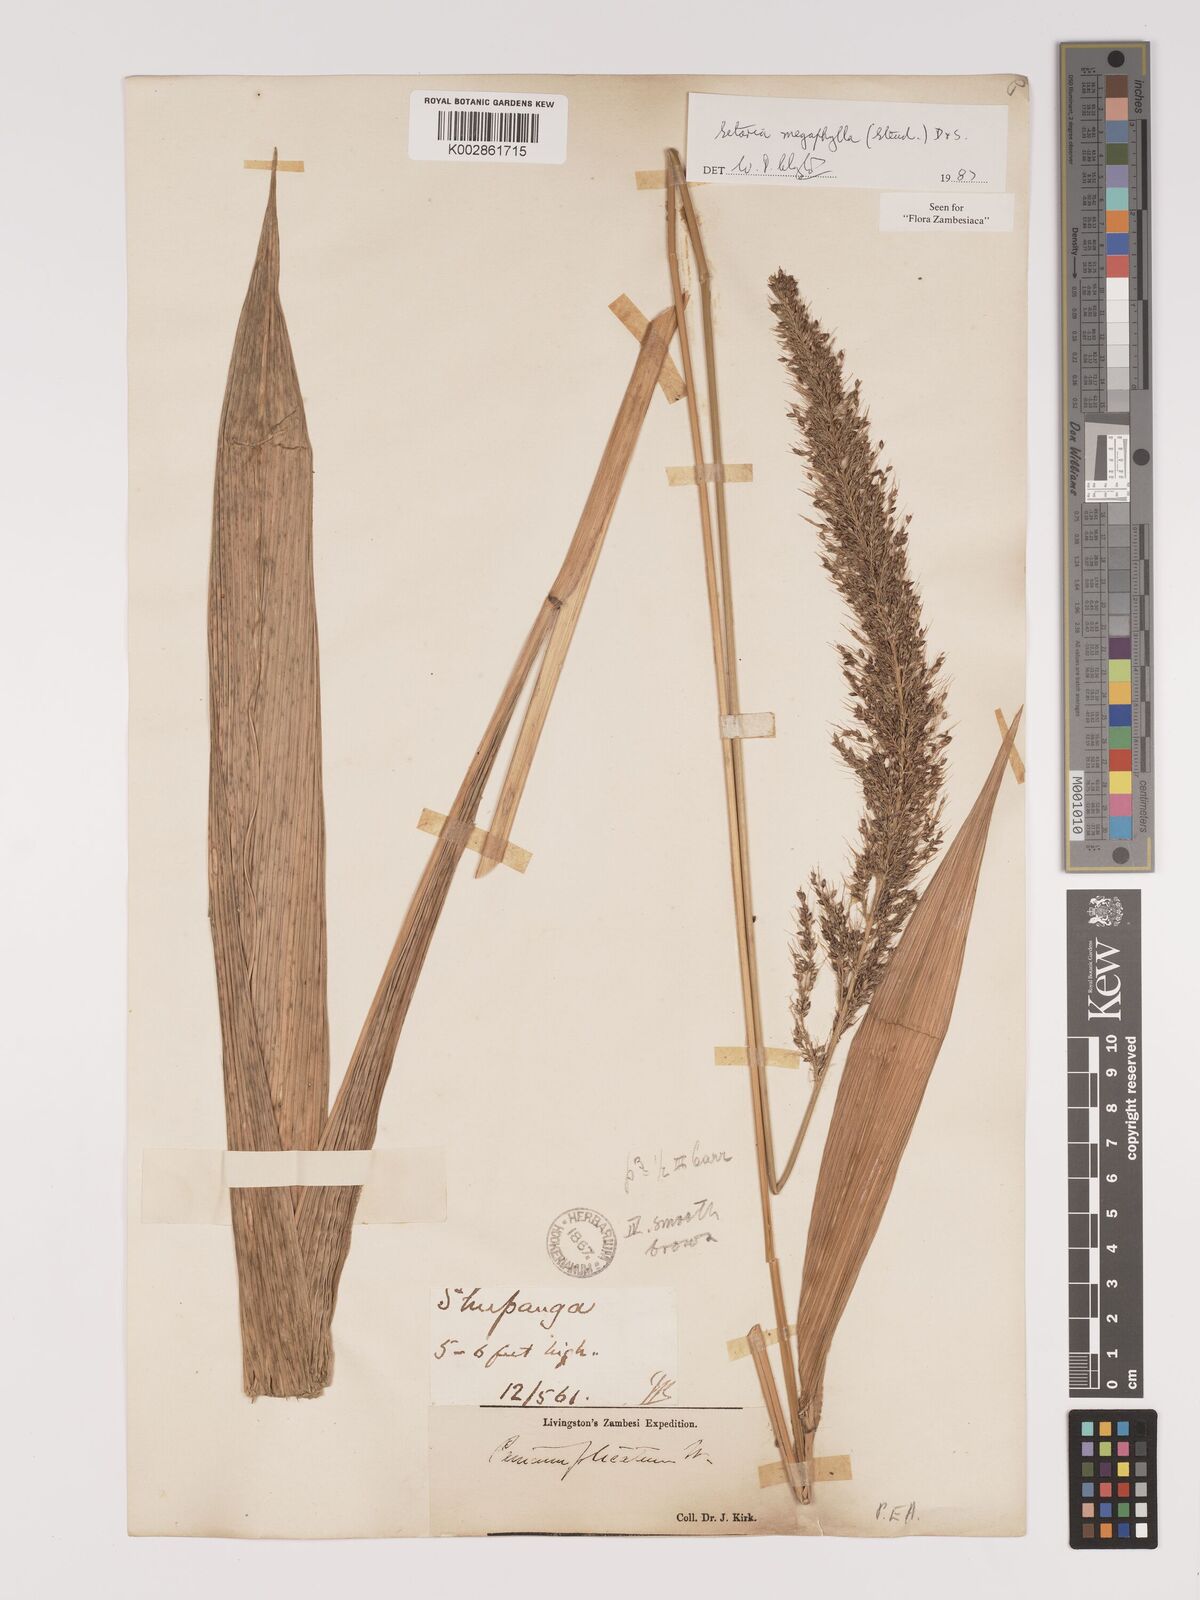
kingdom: Plantae
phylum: Tracheophyta
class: Liliopsida
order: Poales
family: Poaceae
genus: Setaria
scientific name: Setaria megaphylla
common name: Bigleaf bristlegrass
